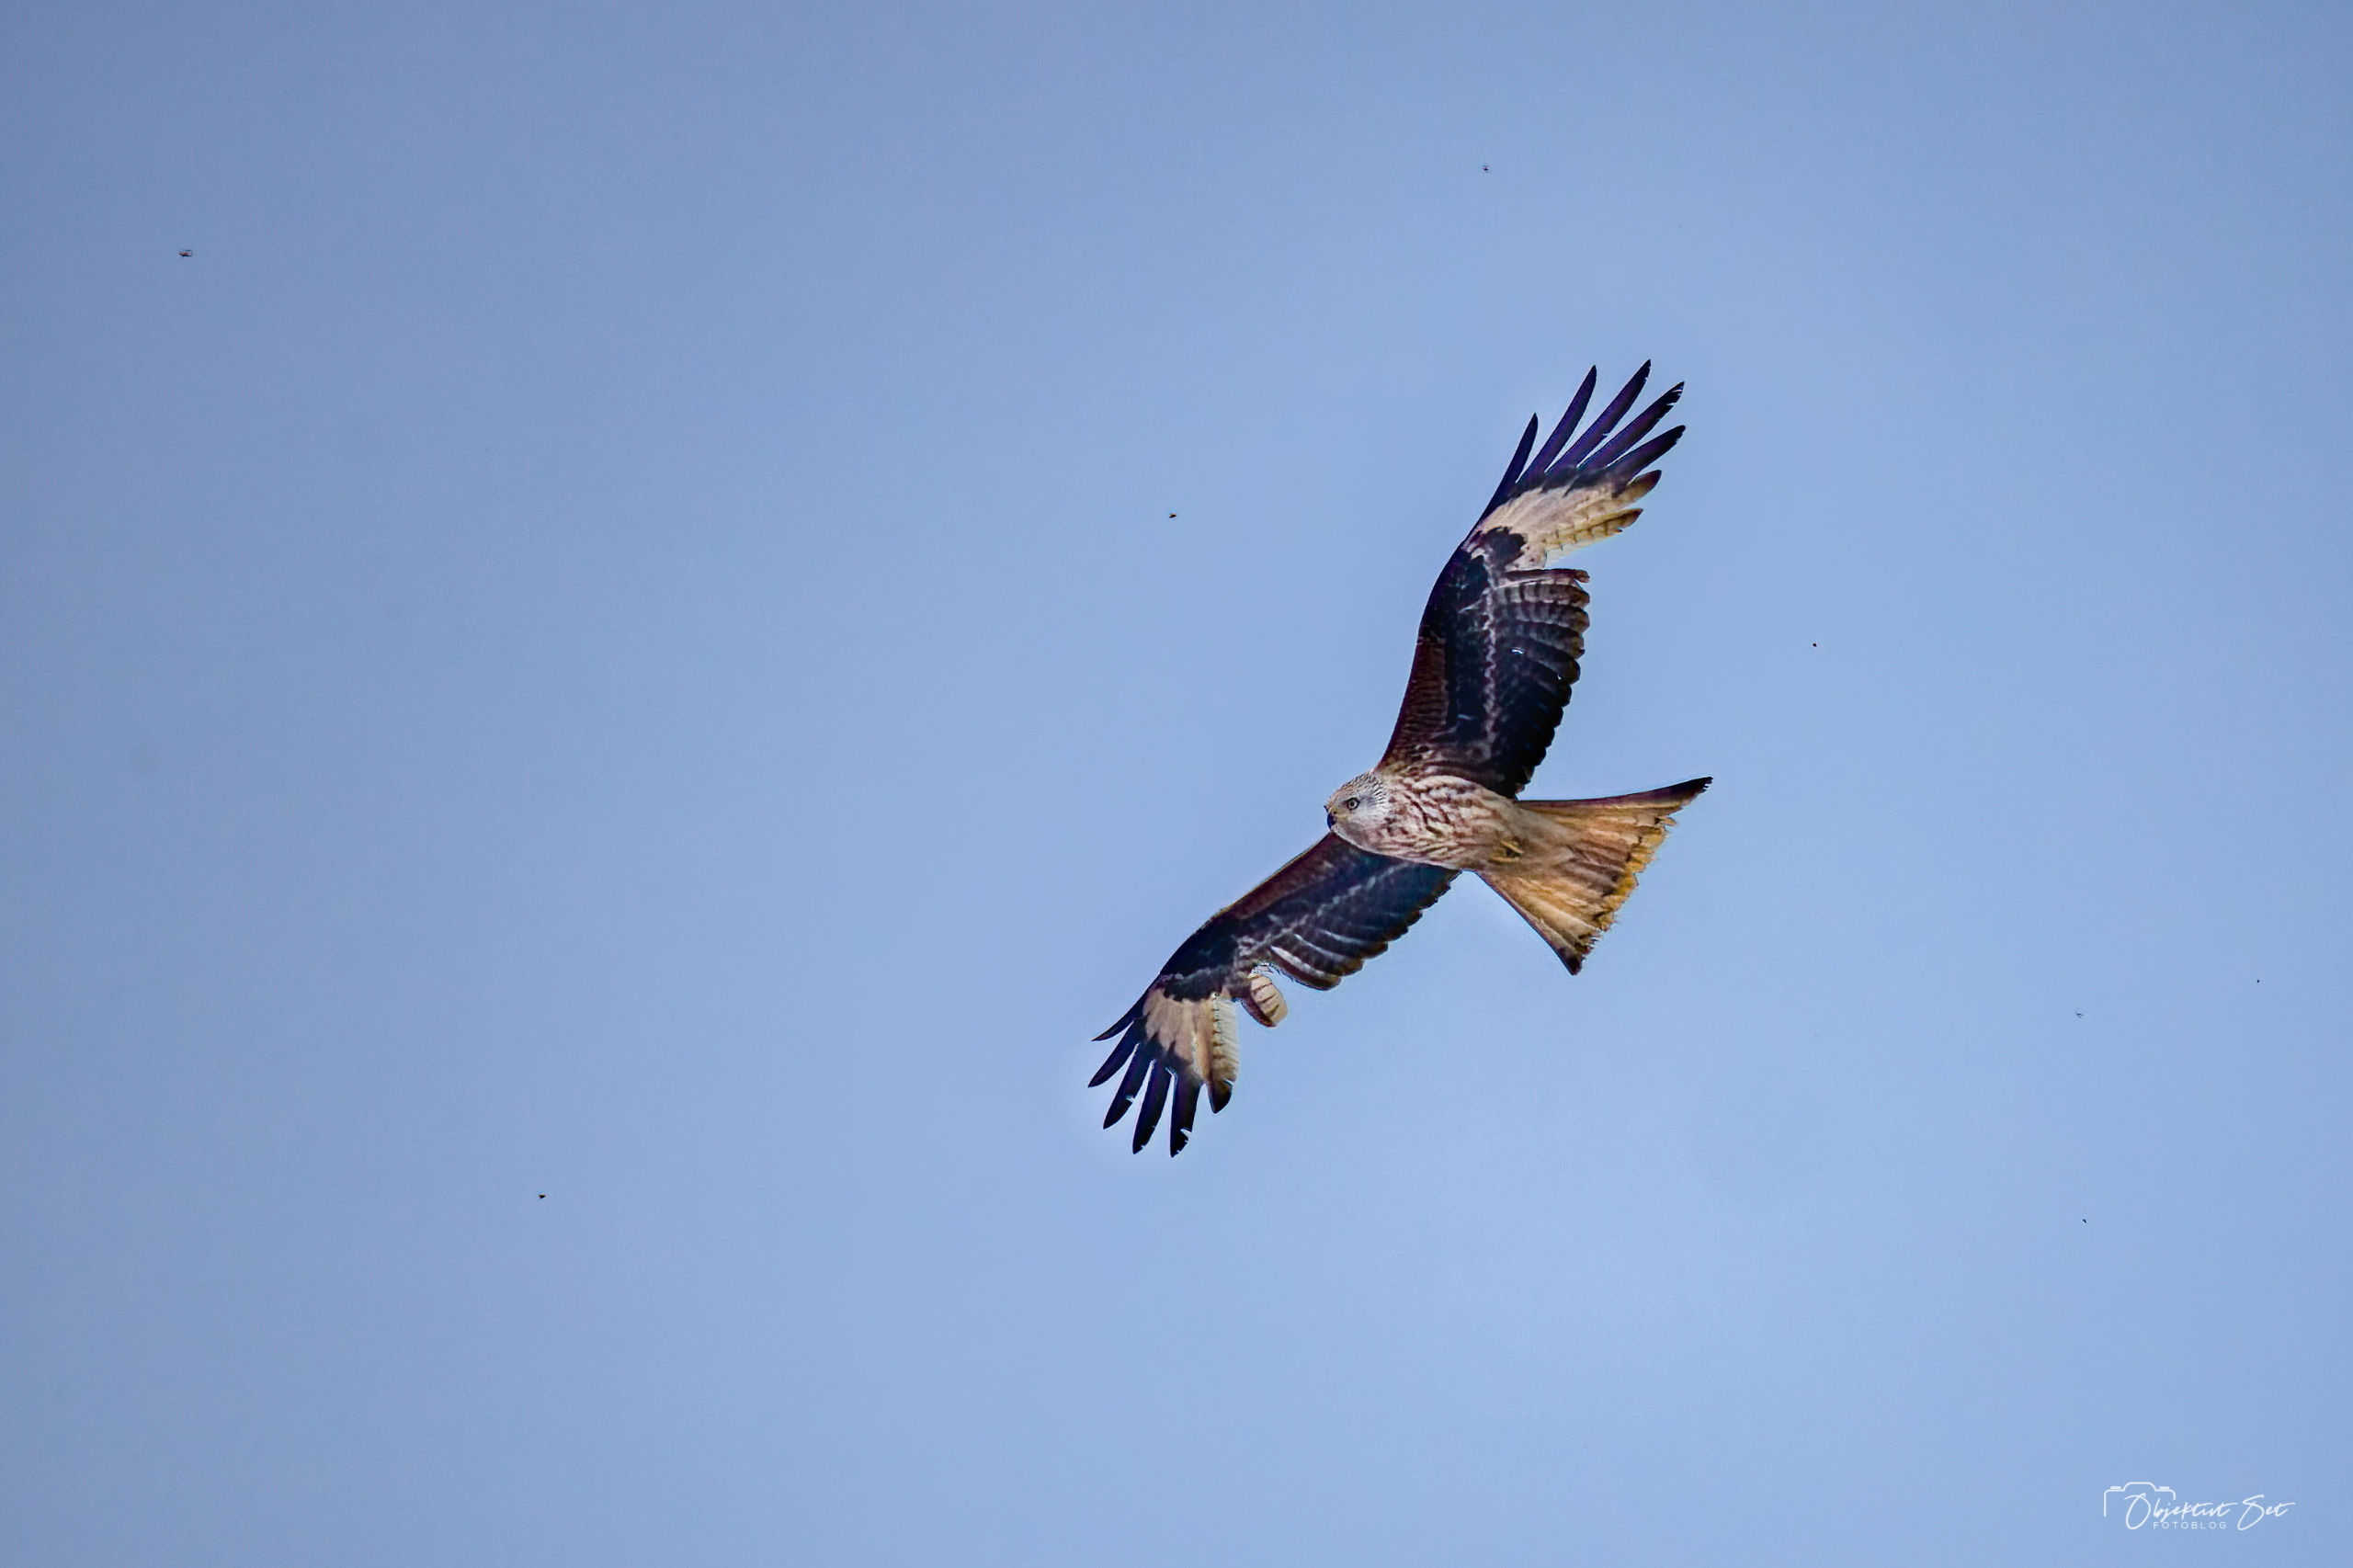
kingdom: Animalia
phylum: Chordata
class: Aves
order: Accipitriformes
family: Accipitridae
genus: Milvus
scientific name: Milvus milvus
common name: Rød glente
